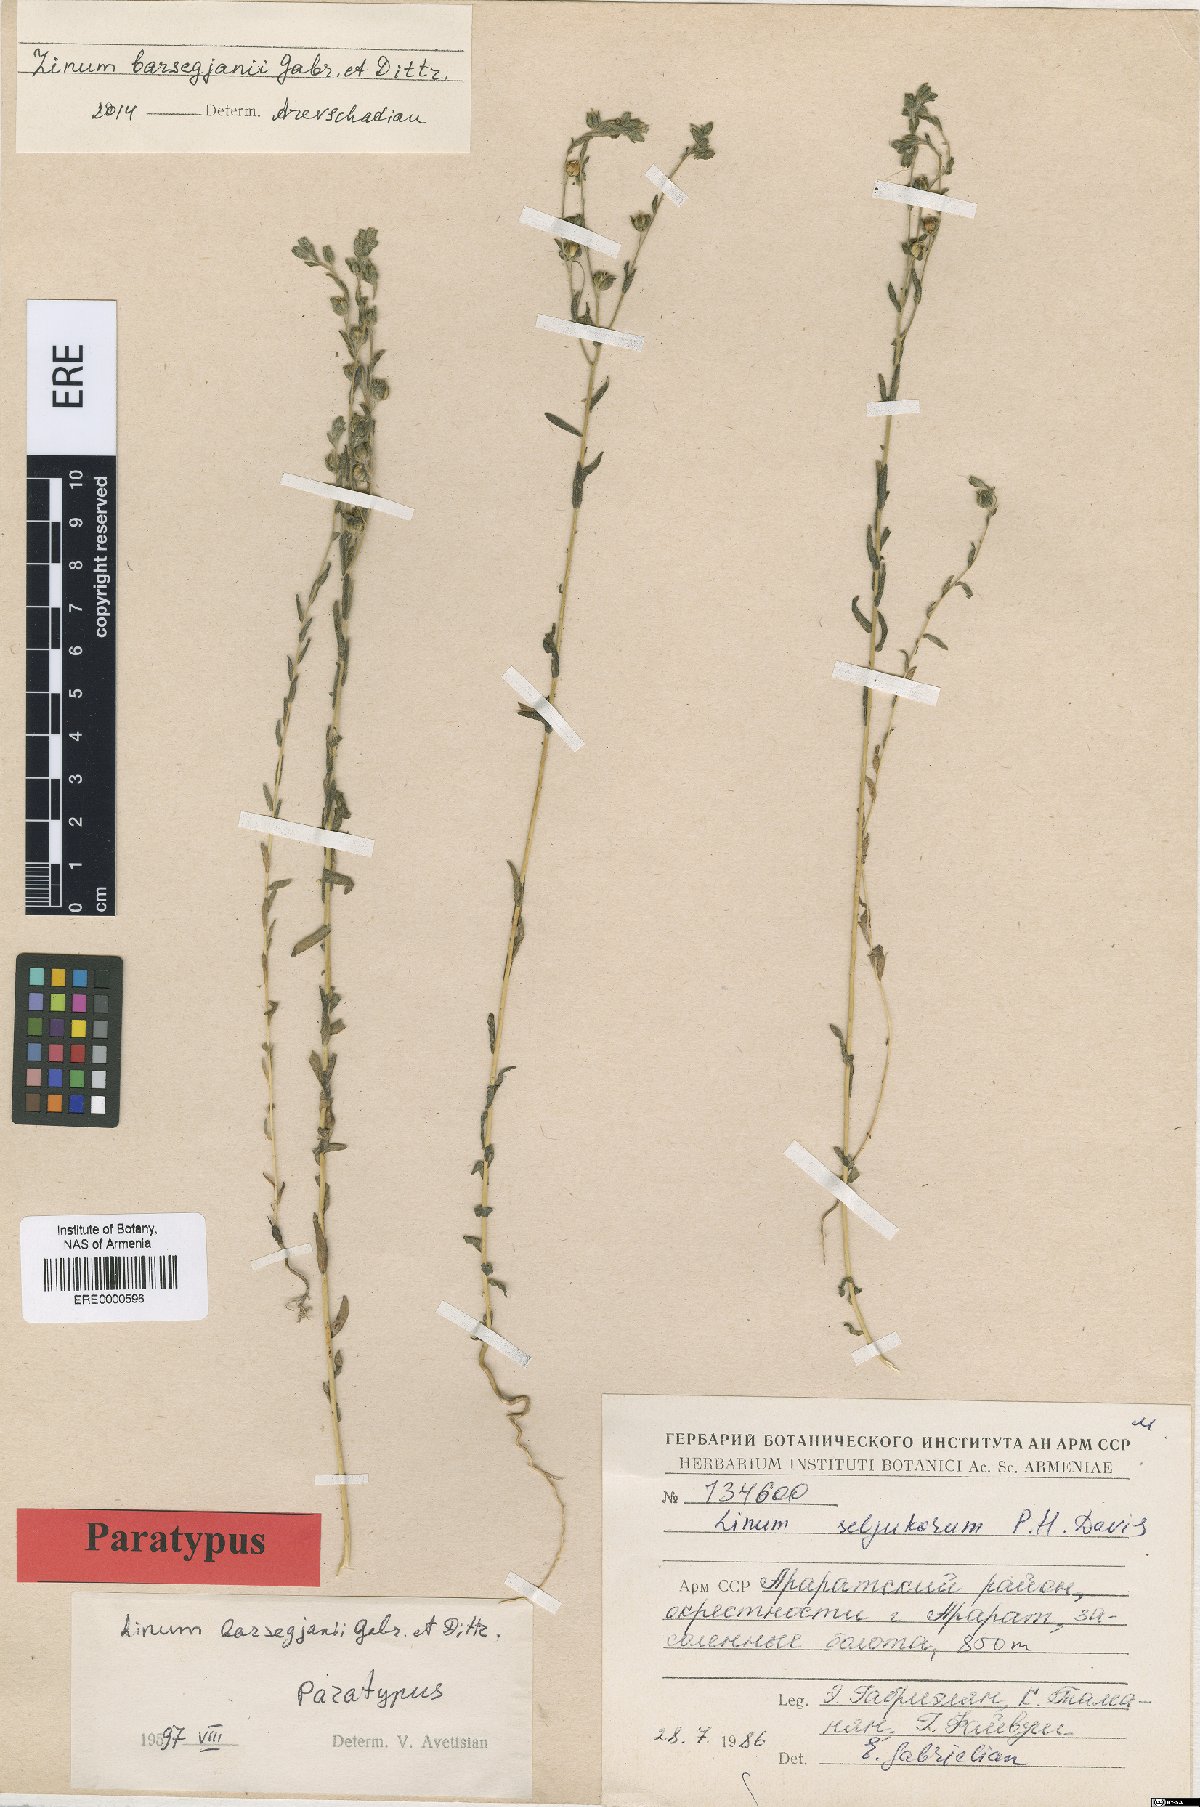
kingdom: Plantae
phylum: Tracheophyta
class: Magnoliopsida
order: Malpighiales
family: Linaceae
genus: Linum
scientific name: Linum seljukorum
